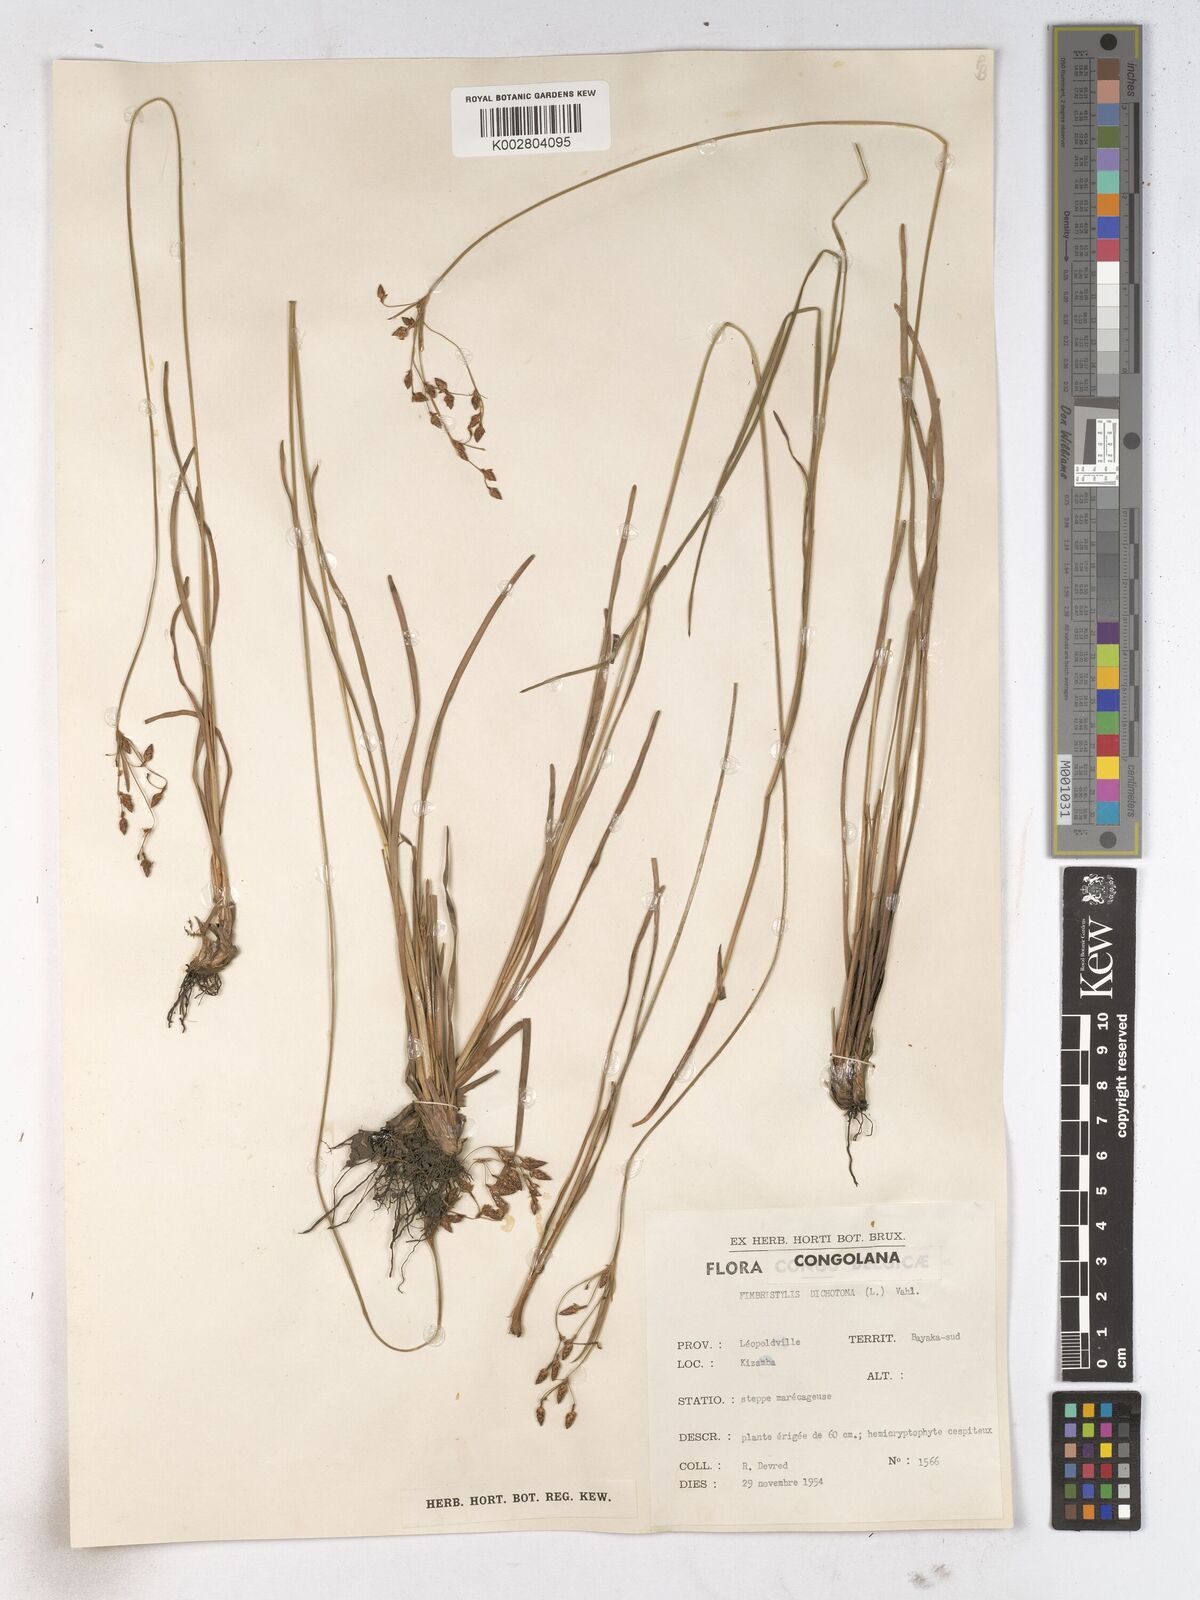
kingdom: Plantae
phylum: Tracheophyta
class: Liliopsida
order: Poales
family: Cyperaceae
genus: Fimbristylis
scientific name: Fimbristylis dichotoma
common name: Forked fimbry
